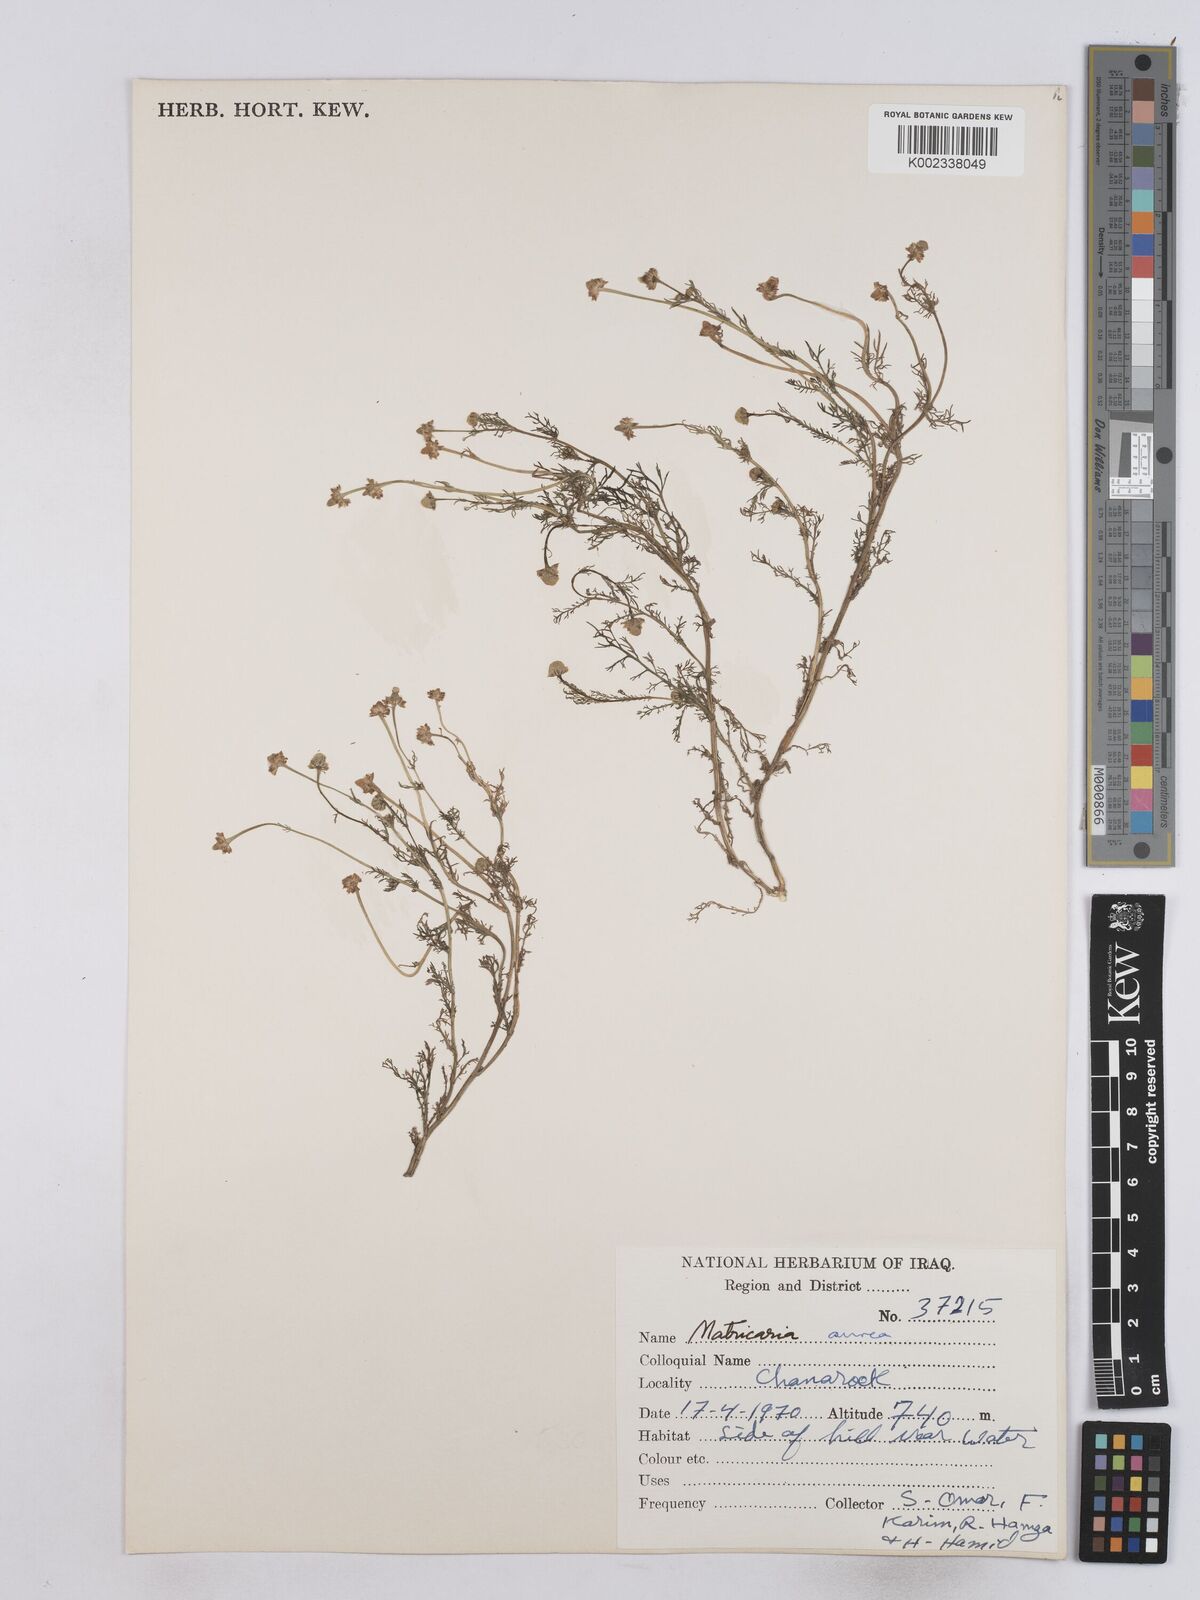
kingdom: Plantae
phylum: Tracheophyta
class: Magnoliopsida
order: Asterales
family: Asteraceae
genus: Matricaria
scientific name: Matricaria aurea
